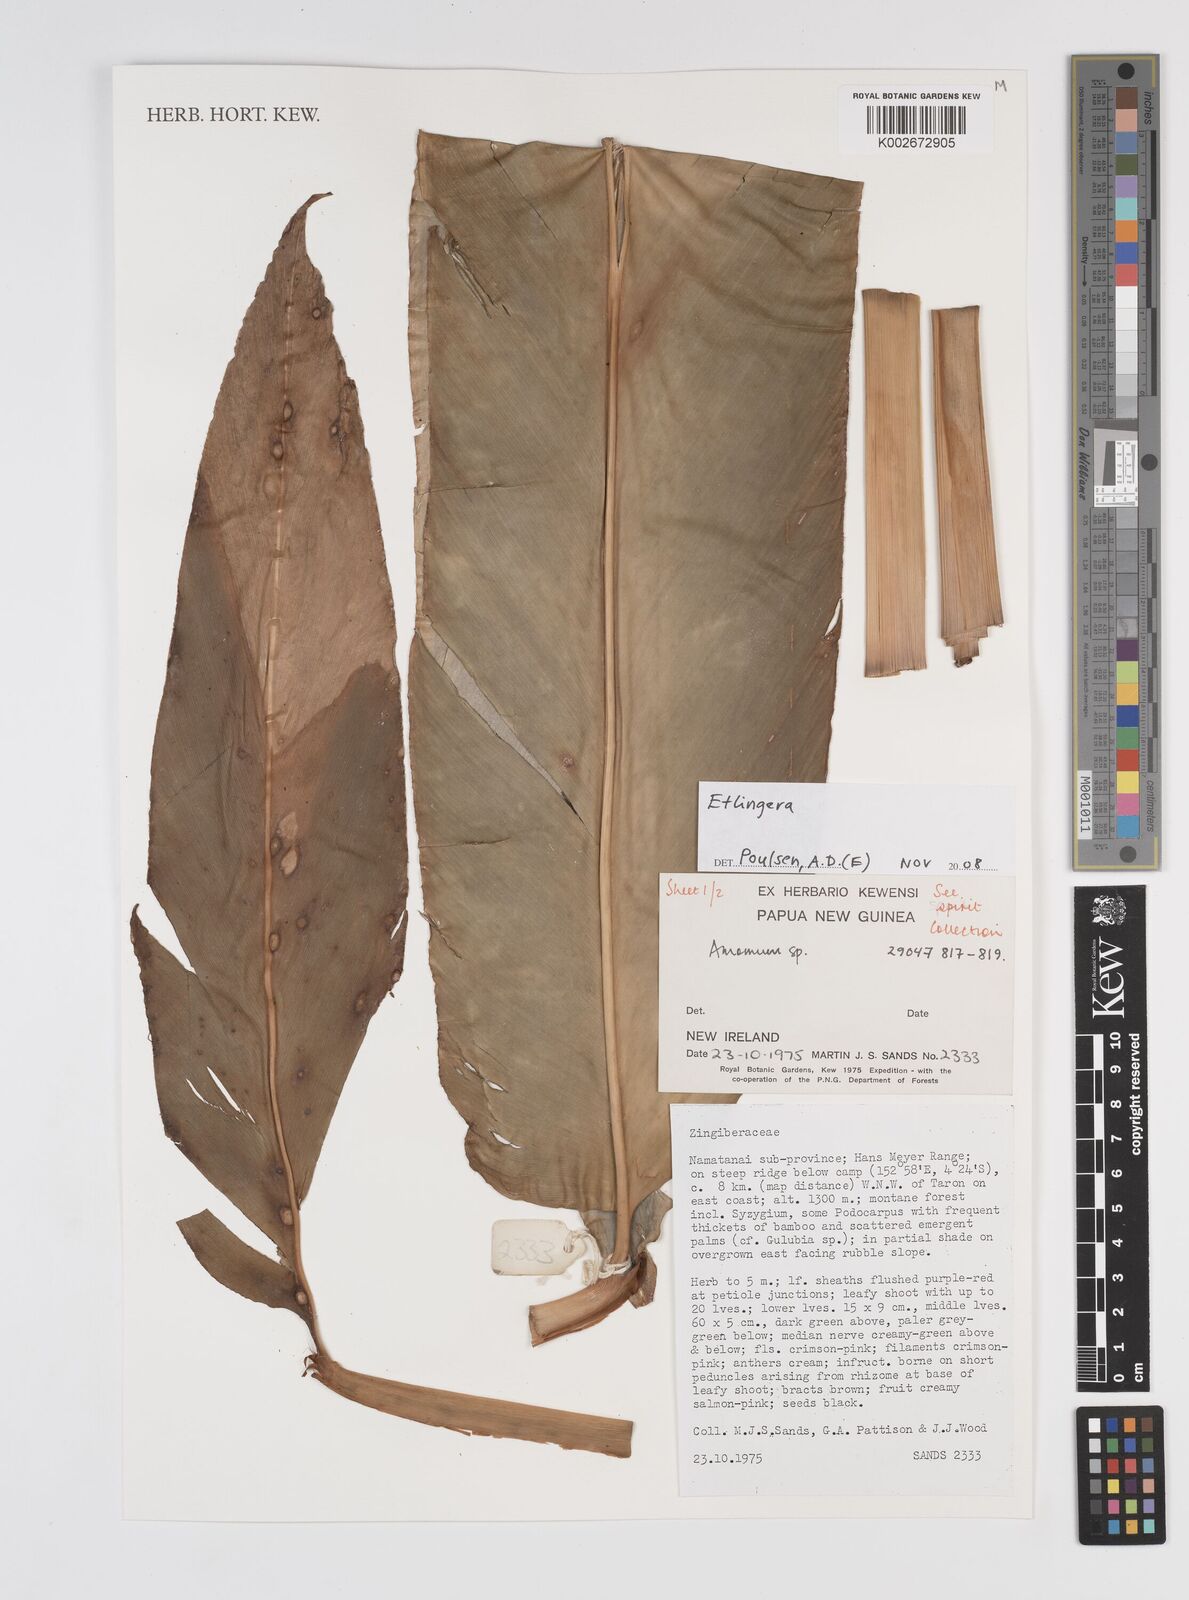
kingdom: Plantae
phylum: Tracheophyta
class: Liliopsida
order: Zingiberales
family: Zingiberaceae
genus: Etlingera
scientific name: Etlingera
